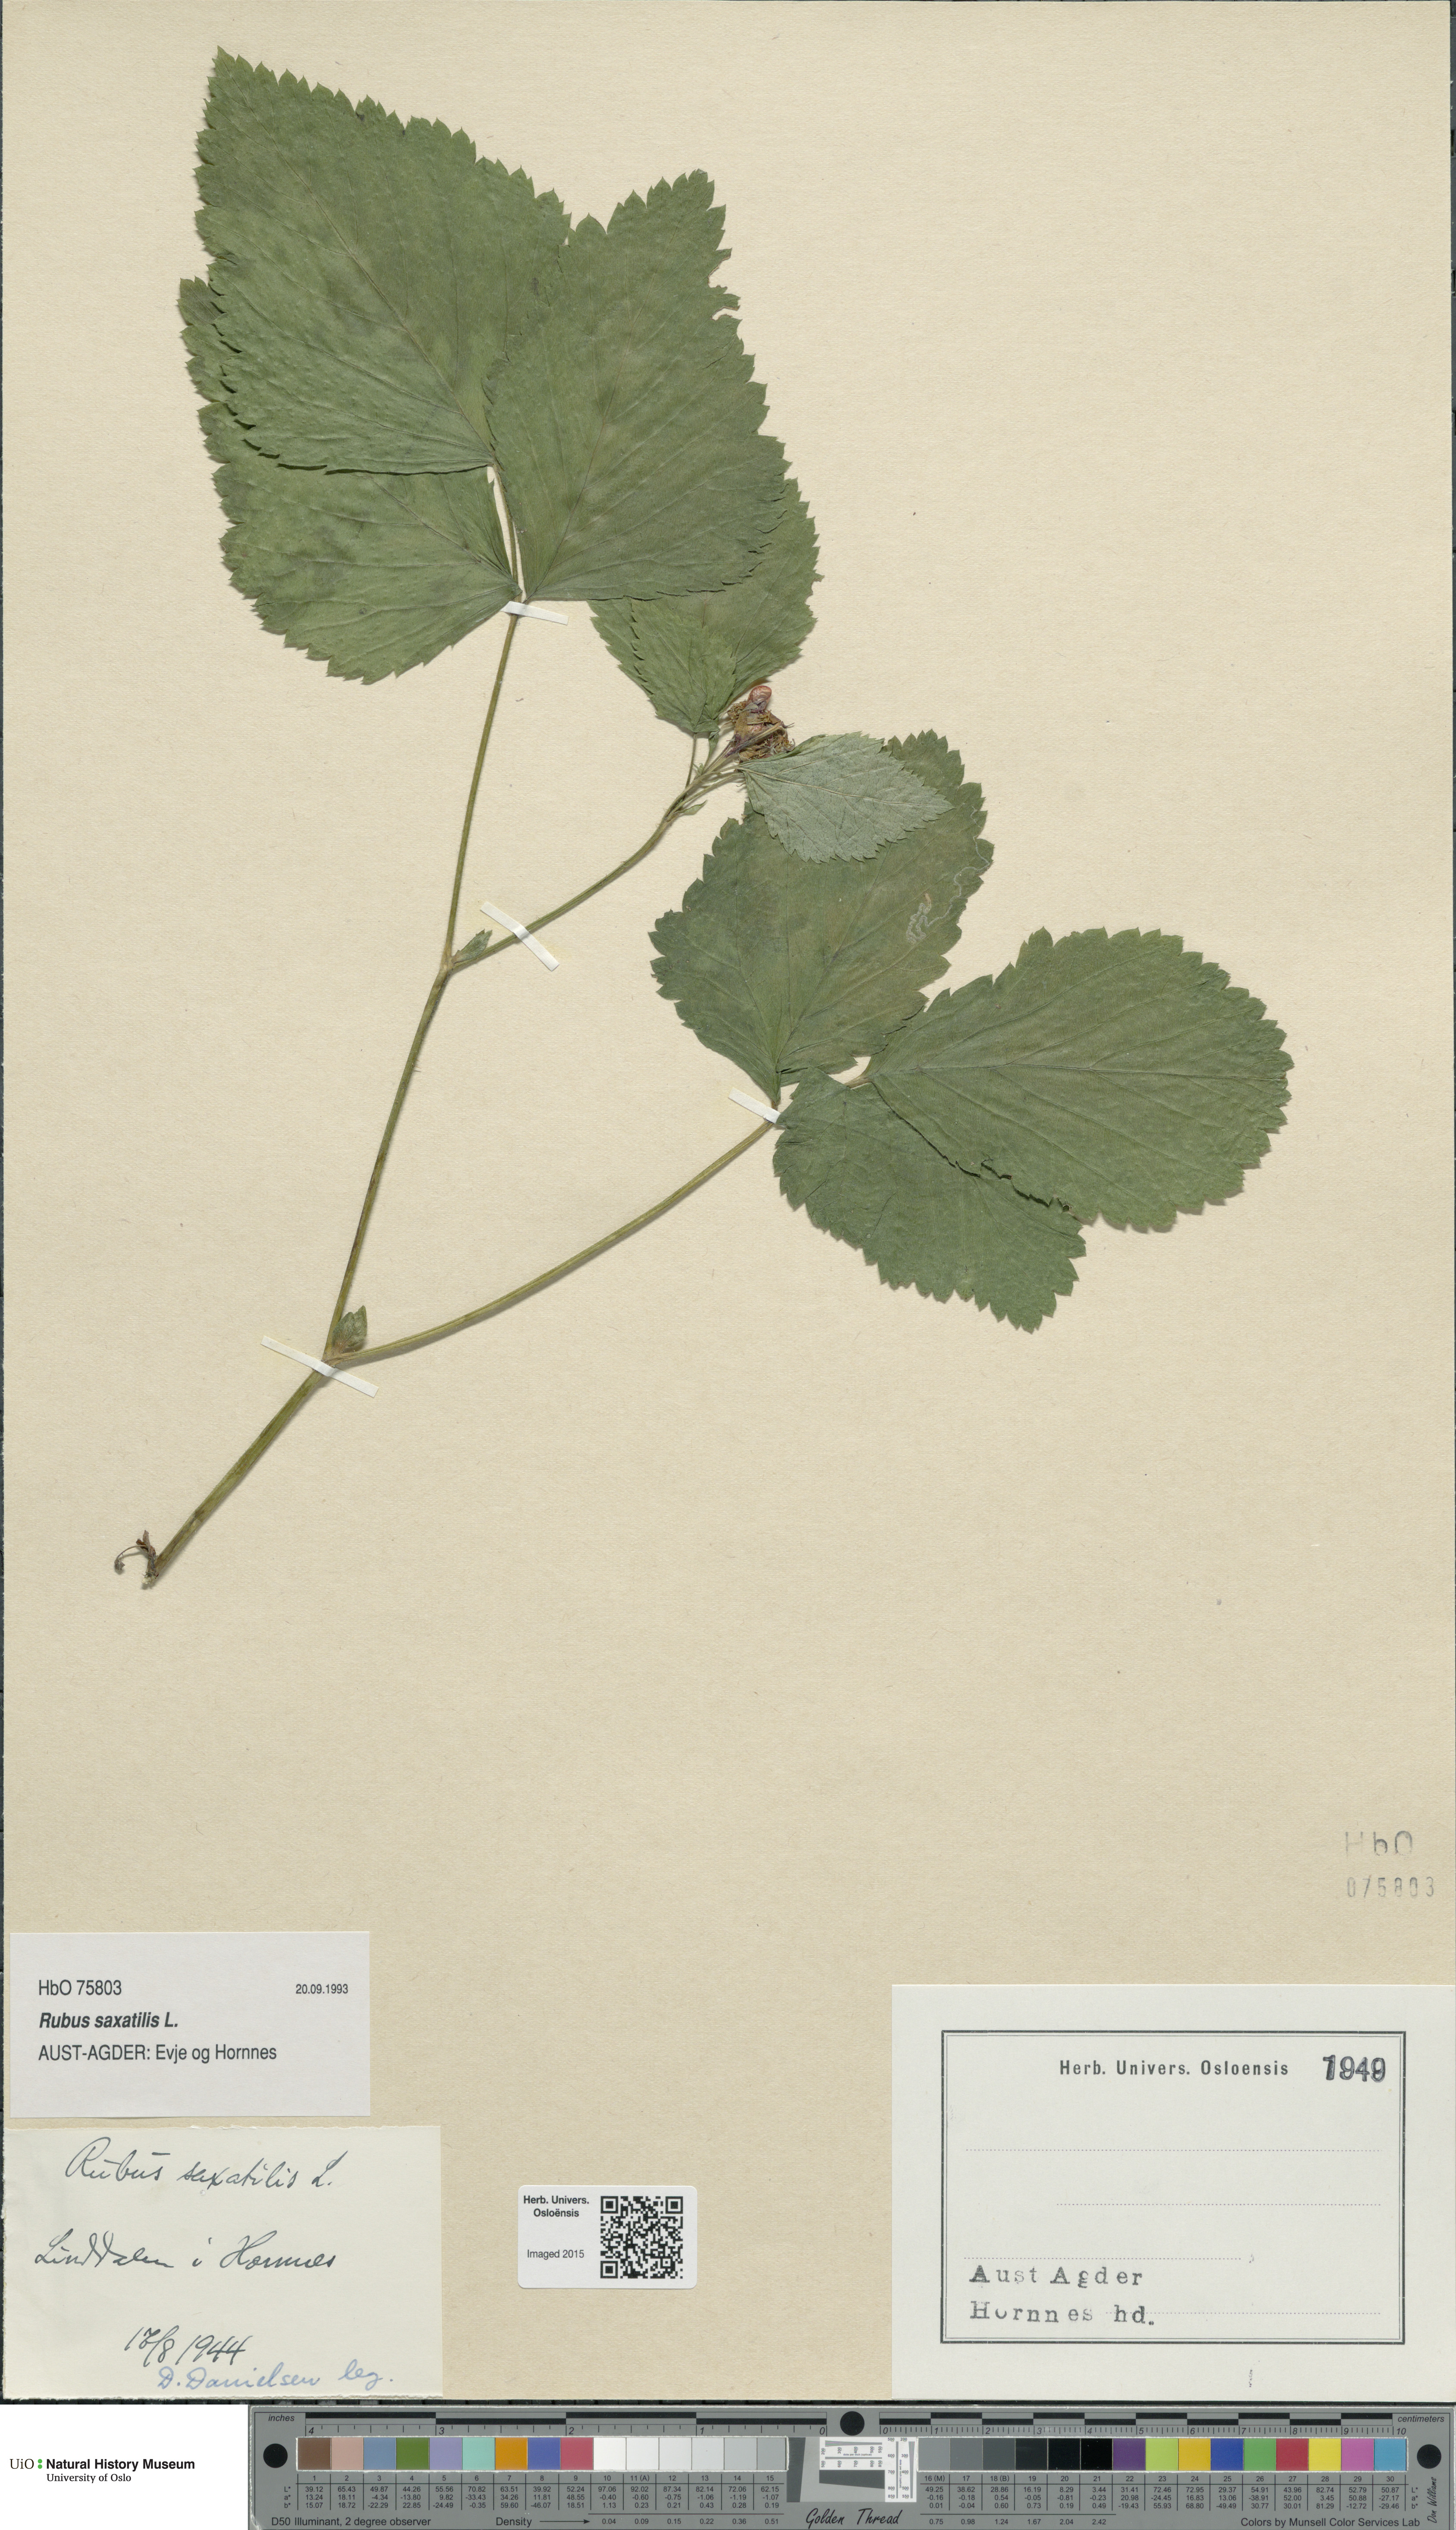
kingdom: Plantae
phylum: Tracheophyta
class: Magnoliopsida
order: Rosales
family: Rosaceae
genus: Rubus
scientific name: Rubus saxatilis
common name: Stone bramble
